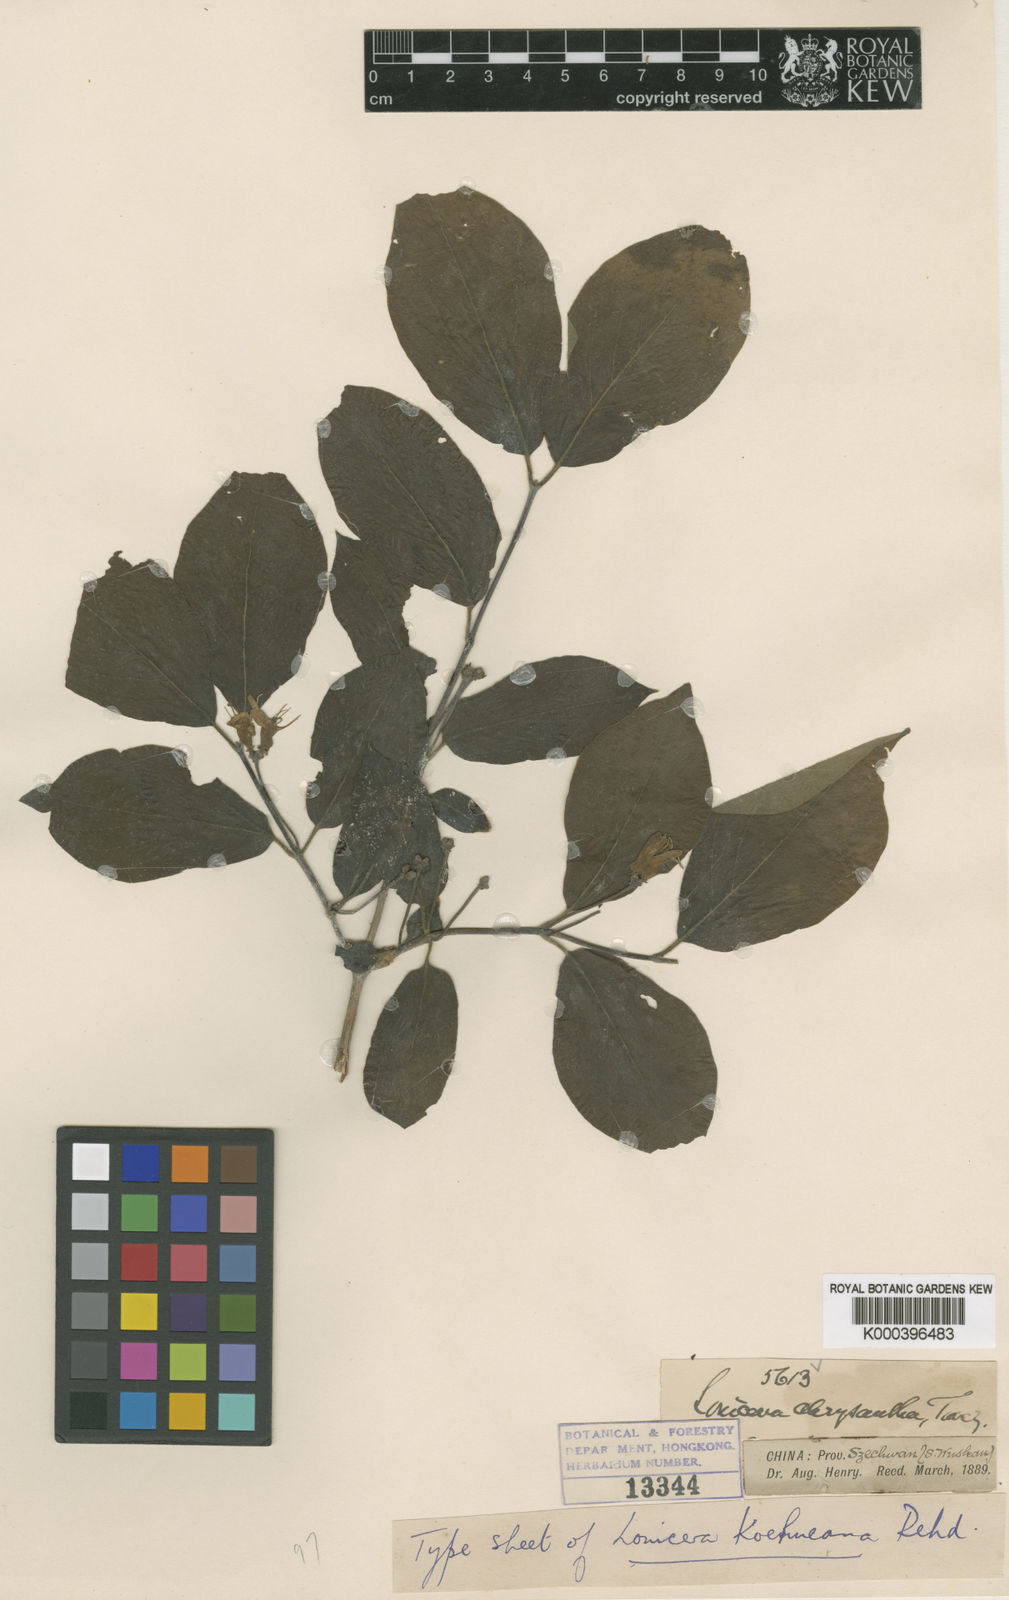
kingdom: Plantae
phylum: Tracheophyta
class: Magnoliopsida
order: Dipsacales
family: Caprifoliaceae
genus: Lonicera
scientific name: Lonicera chrysantha
